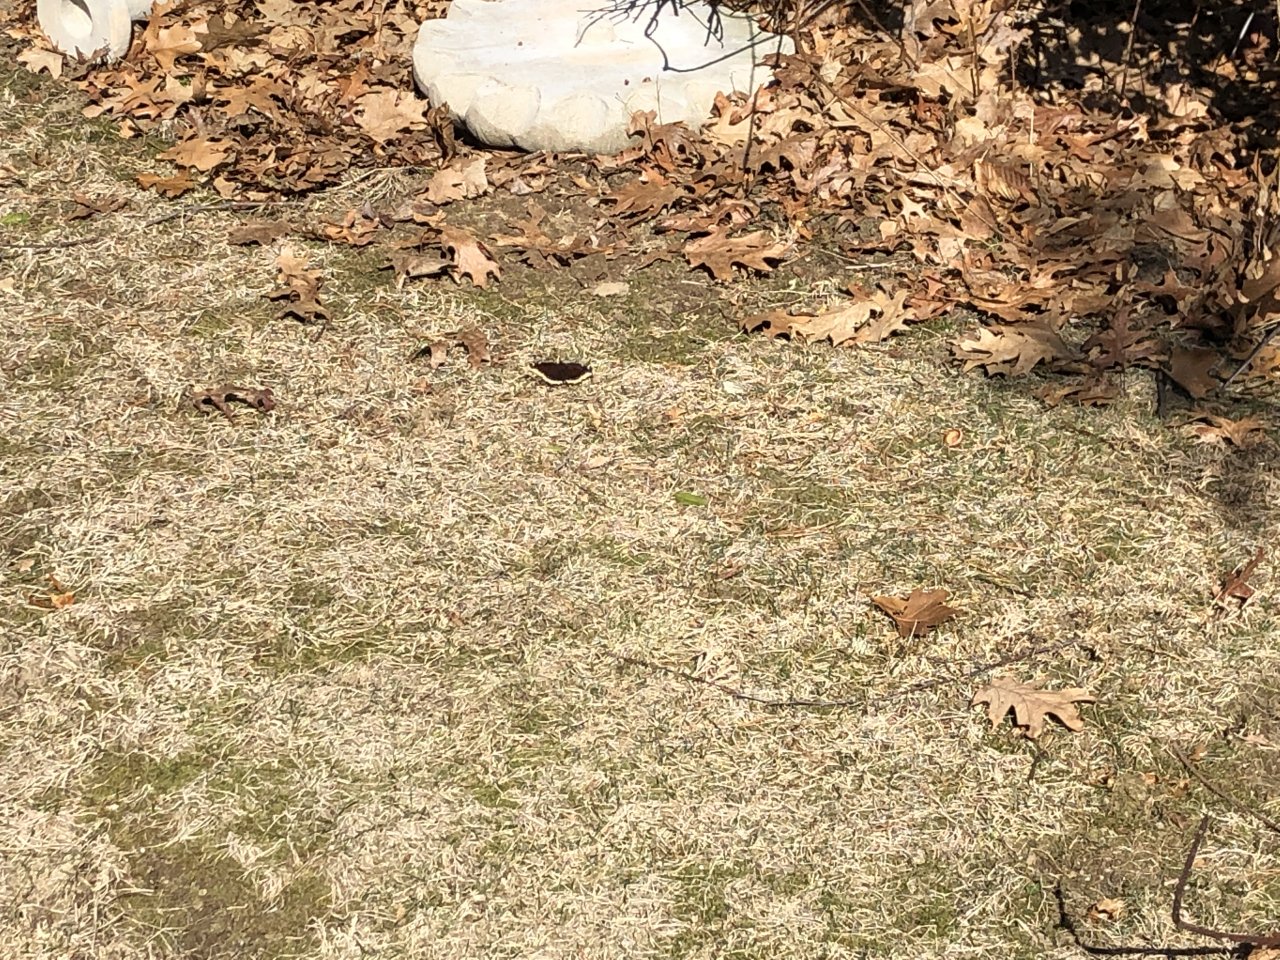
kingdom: Animalia
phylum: Arthropoda
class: Insecta
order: Lepidoptera
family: Nymphalidae
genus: Nymphalis
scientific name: Nymphalis antiopa
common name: Mourning Cloak
